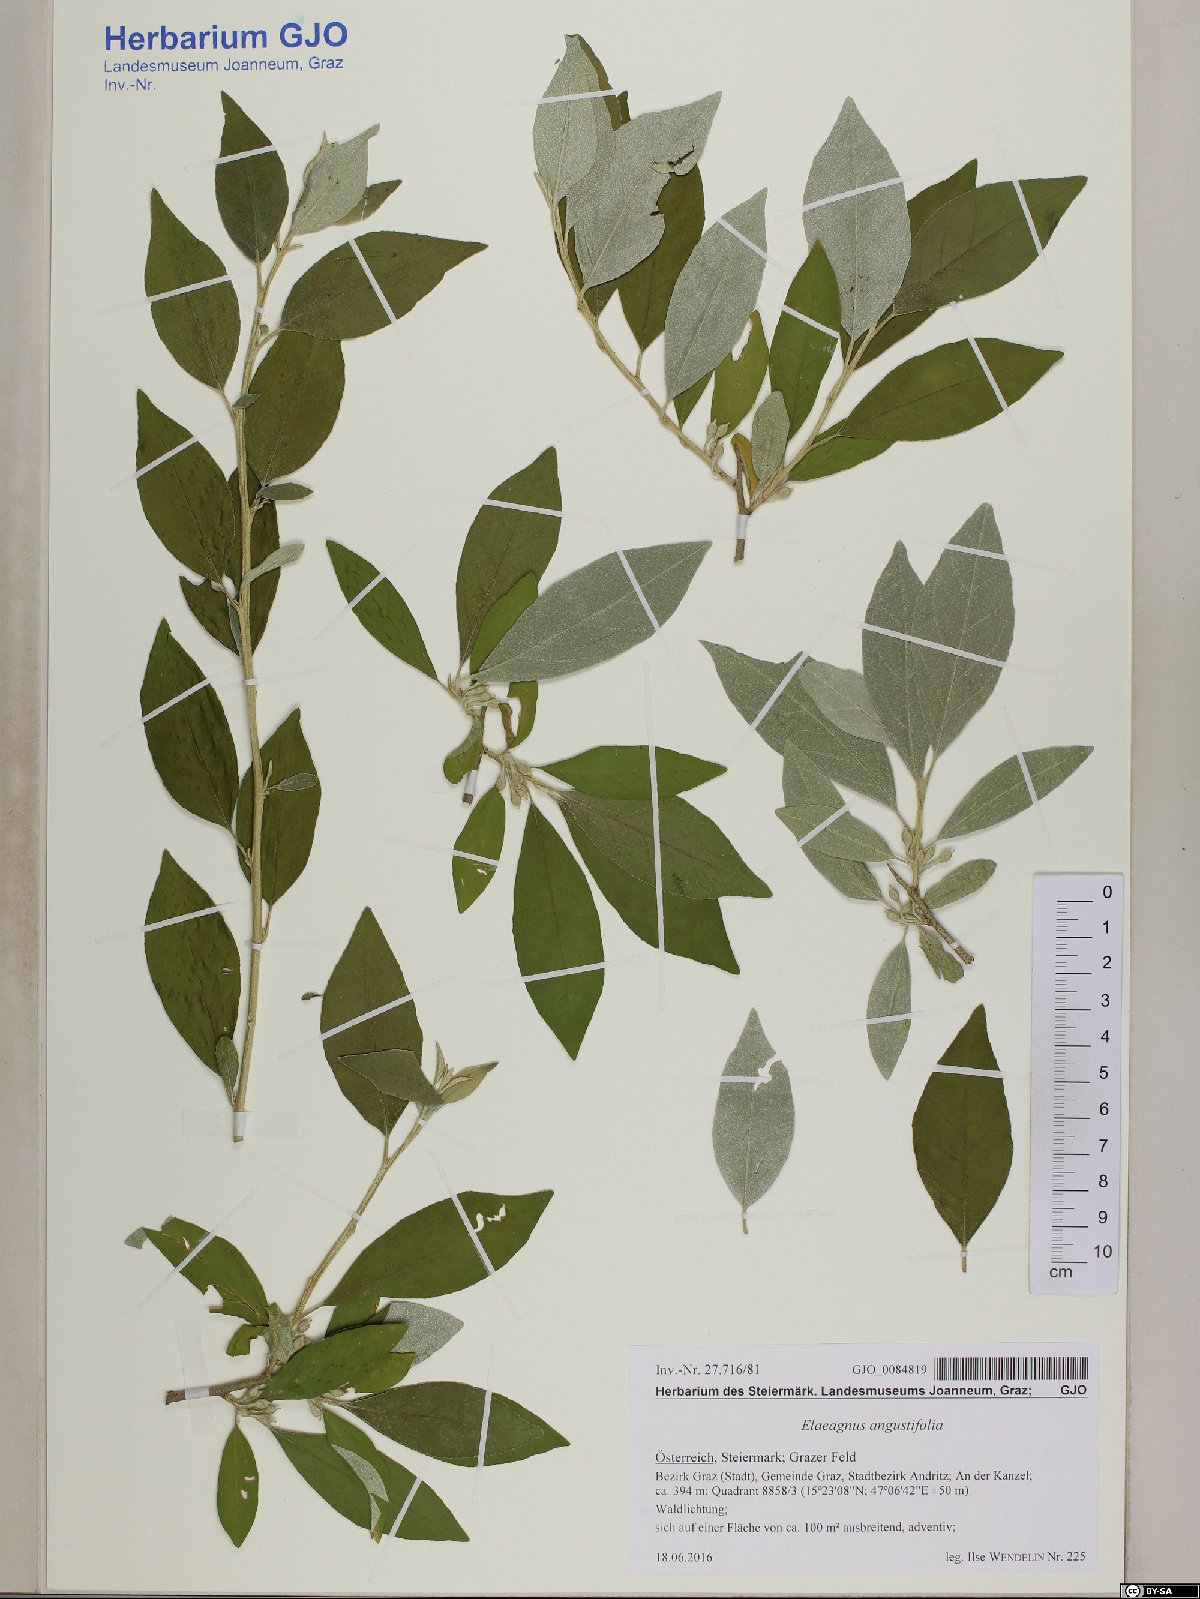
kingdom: Plantae
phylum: Tracheophyta
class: Magnoliopsida
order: Rosales
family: Elaeagnaceae
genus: Elaeagnus
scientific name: Elaeagnus angustifolia
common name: Russian olive
